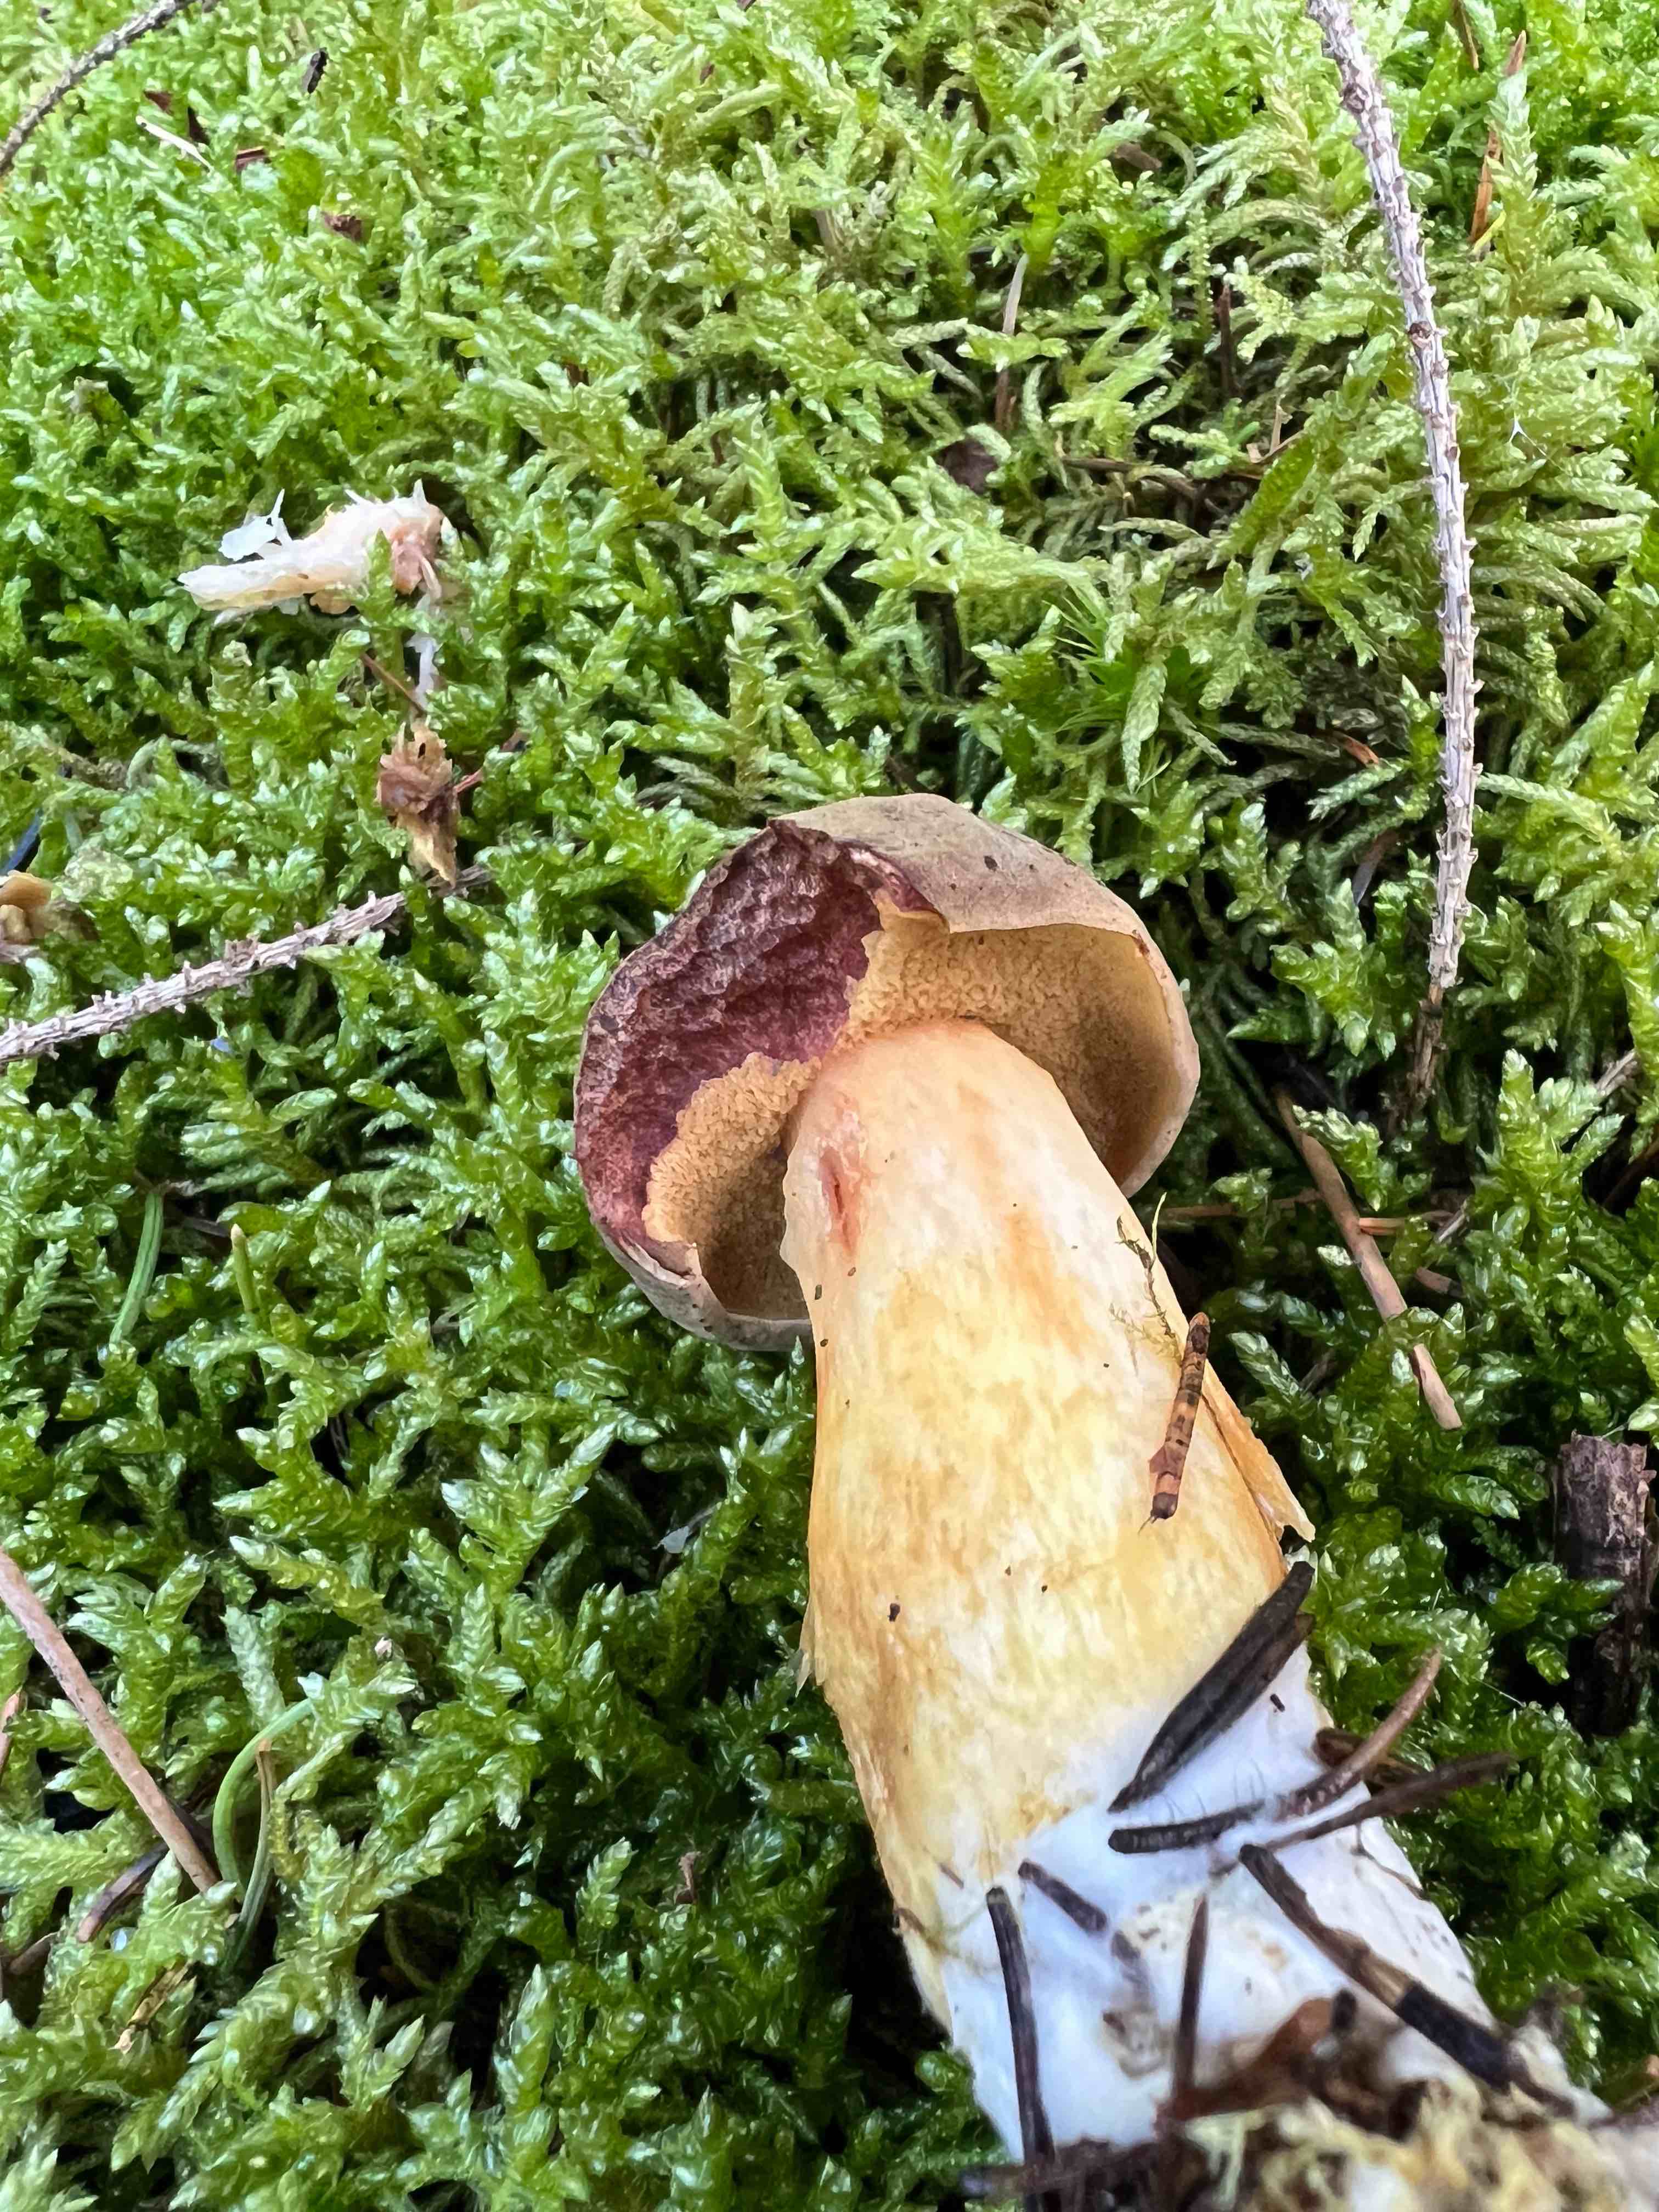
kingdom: Fungi
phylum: Basidiomycota
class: Agaricomycetes
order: Boletales
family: Boletaceae
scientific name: Boletaceae
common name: rørhatfamilien
